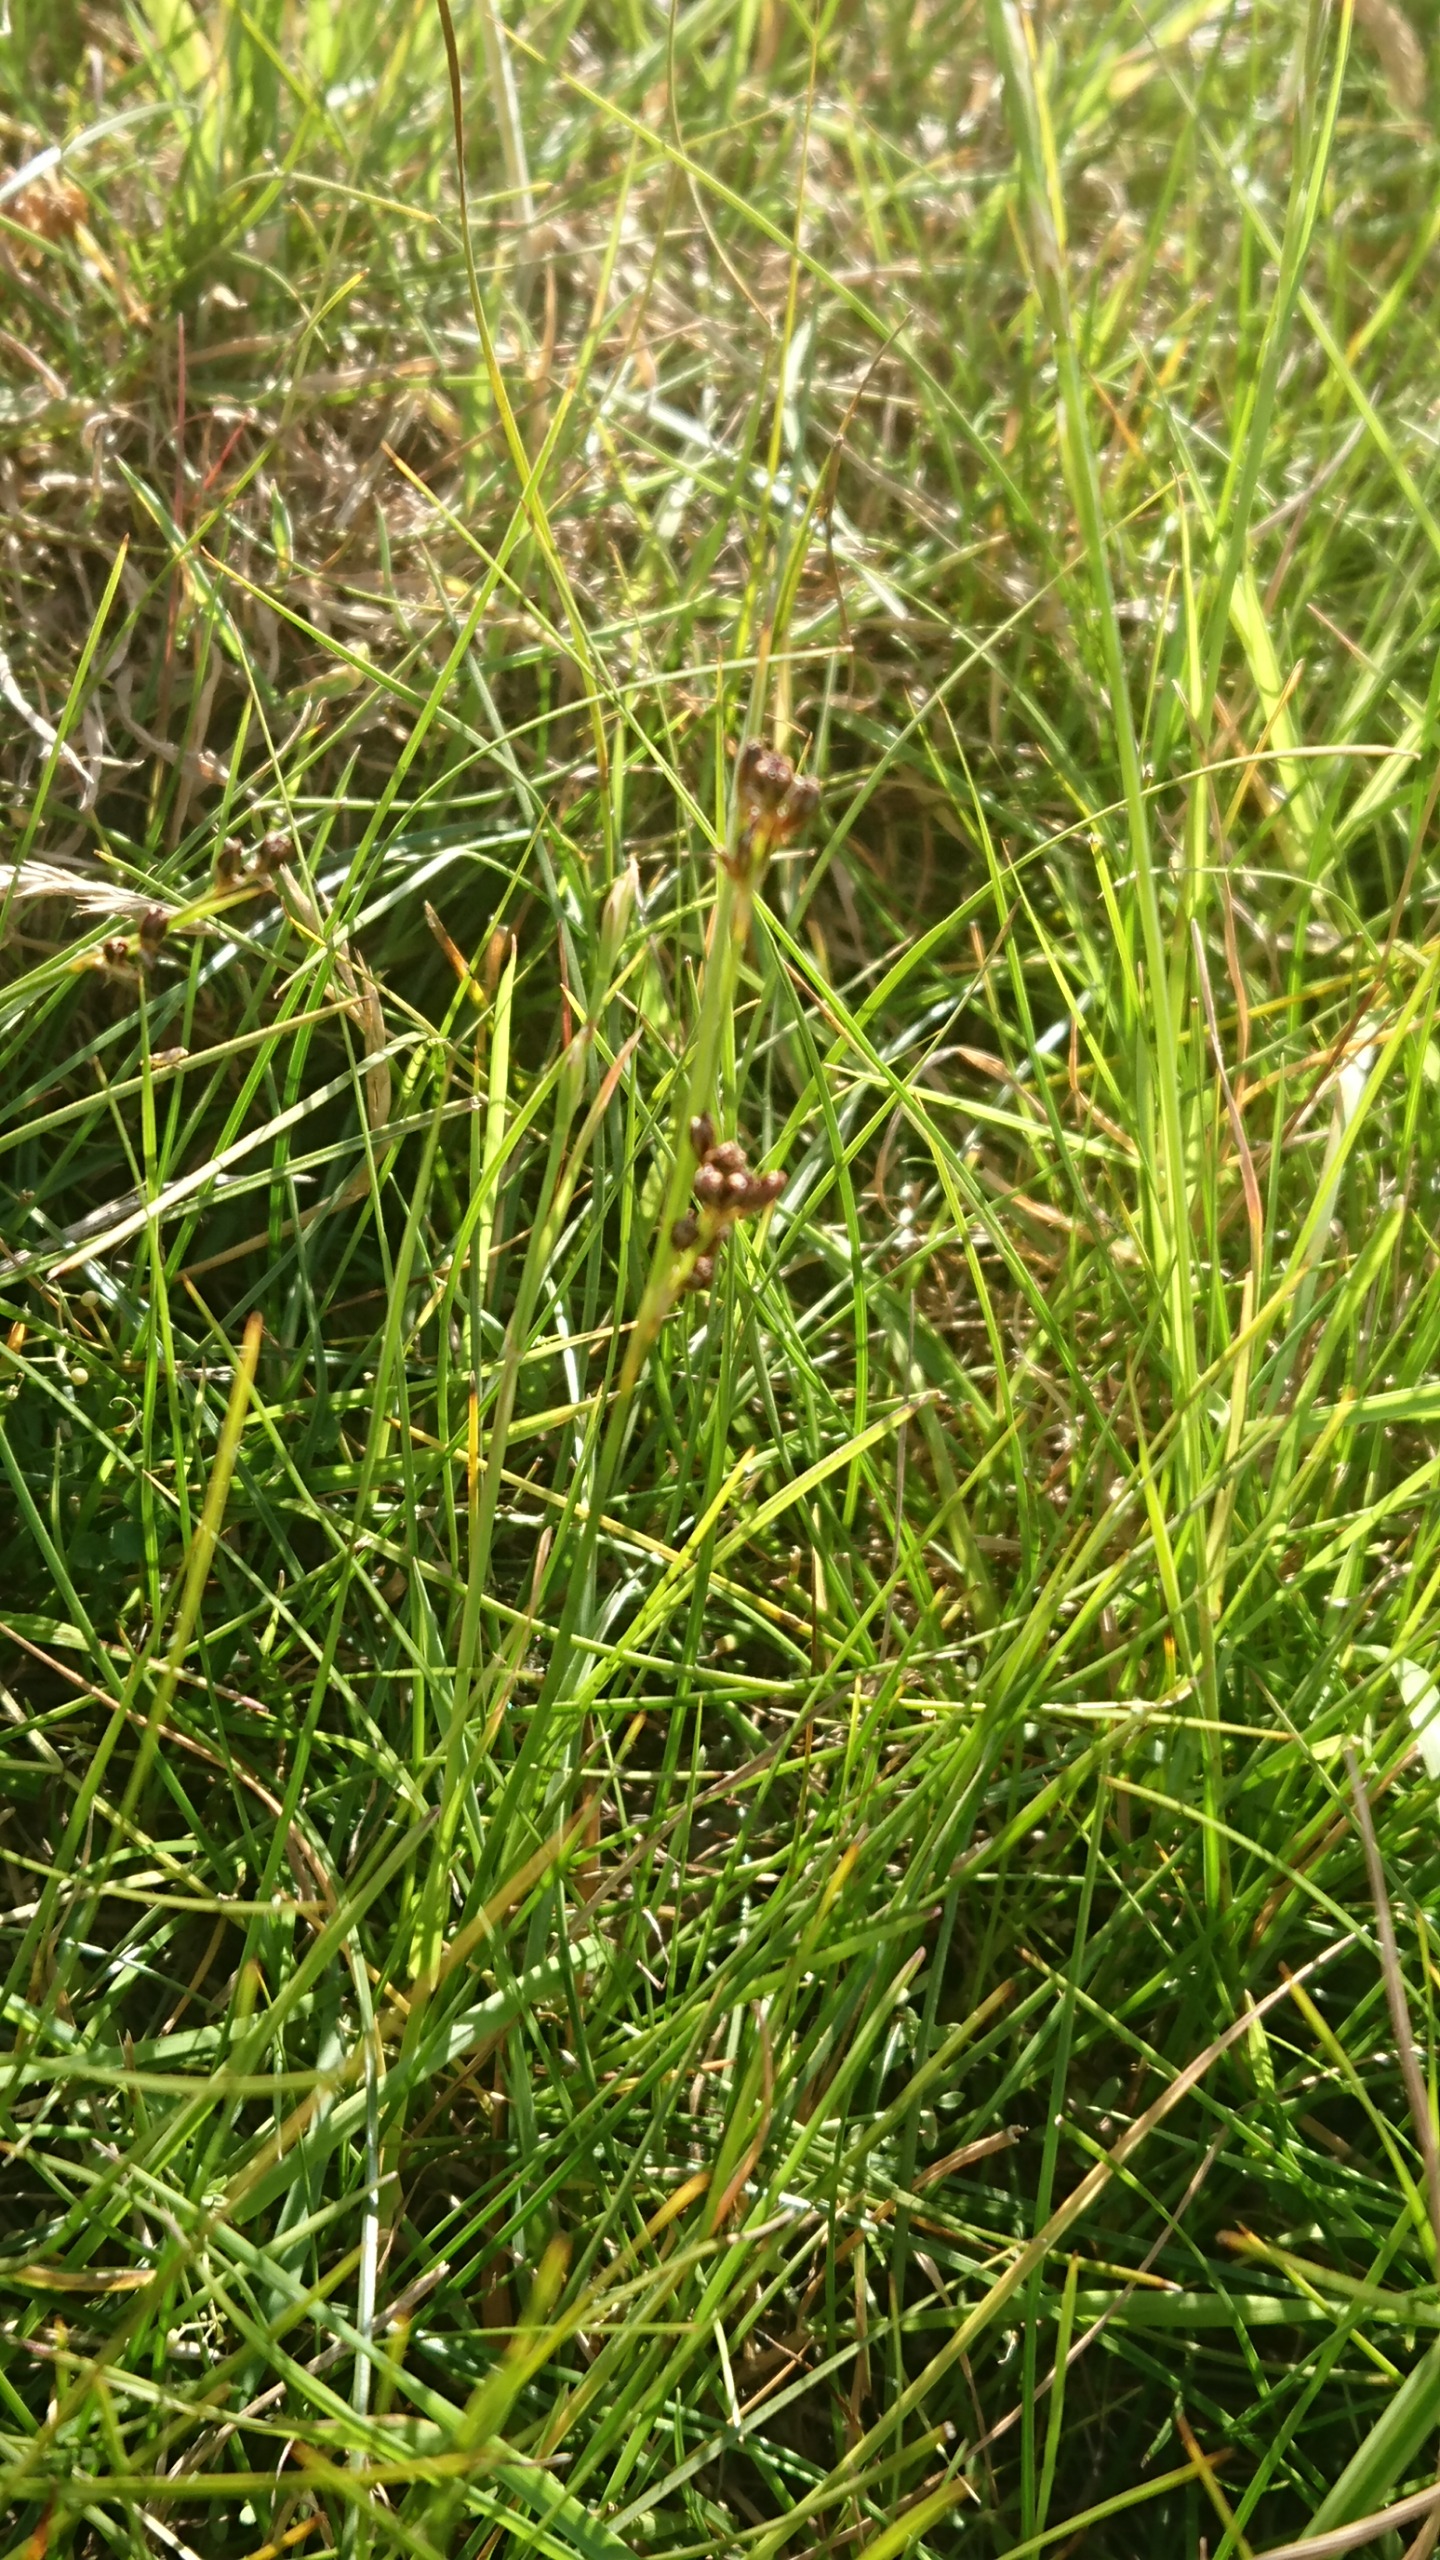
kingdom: Plantae
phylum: Tracheophyta
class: Liliopsida
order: Poales
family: Juncaceae
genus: Juncus
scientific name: Juncus gerardi
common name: Harril
